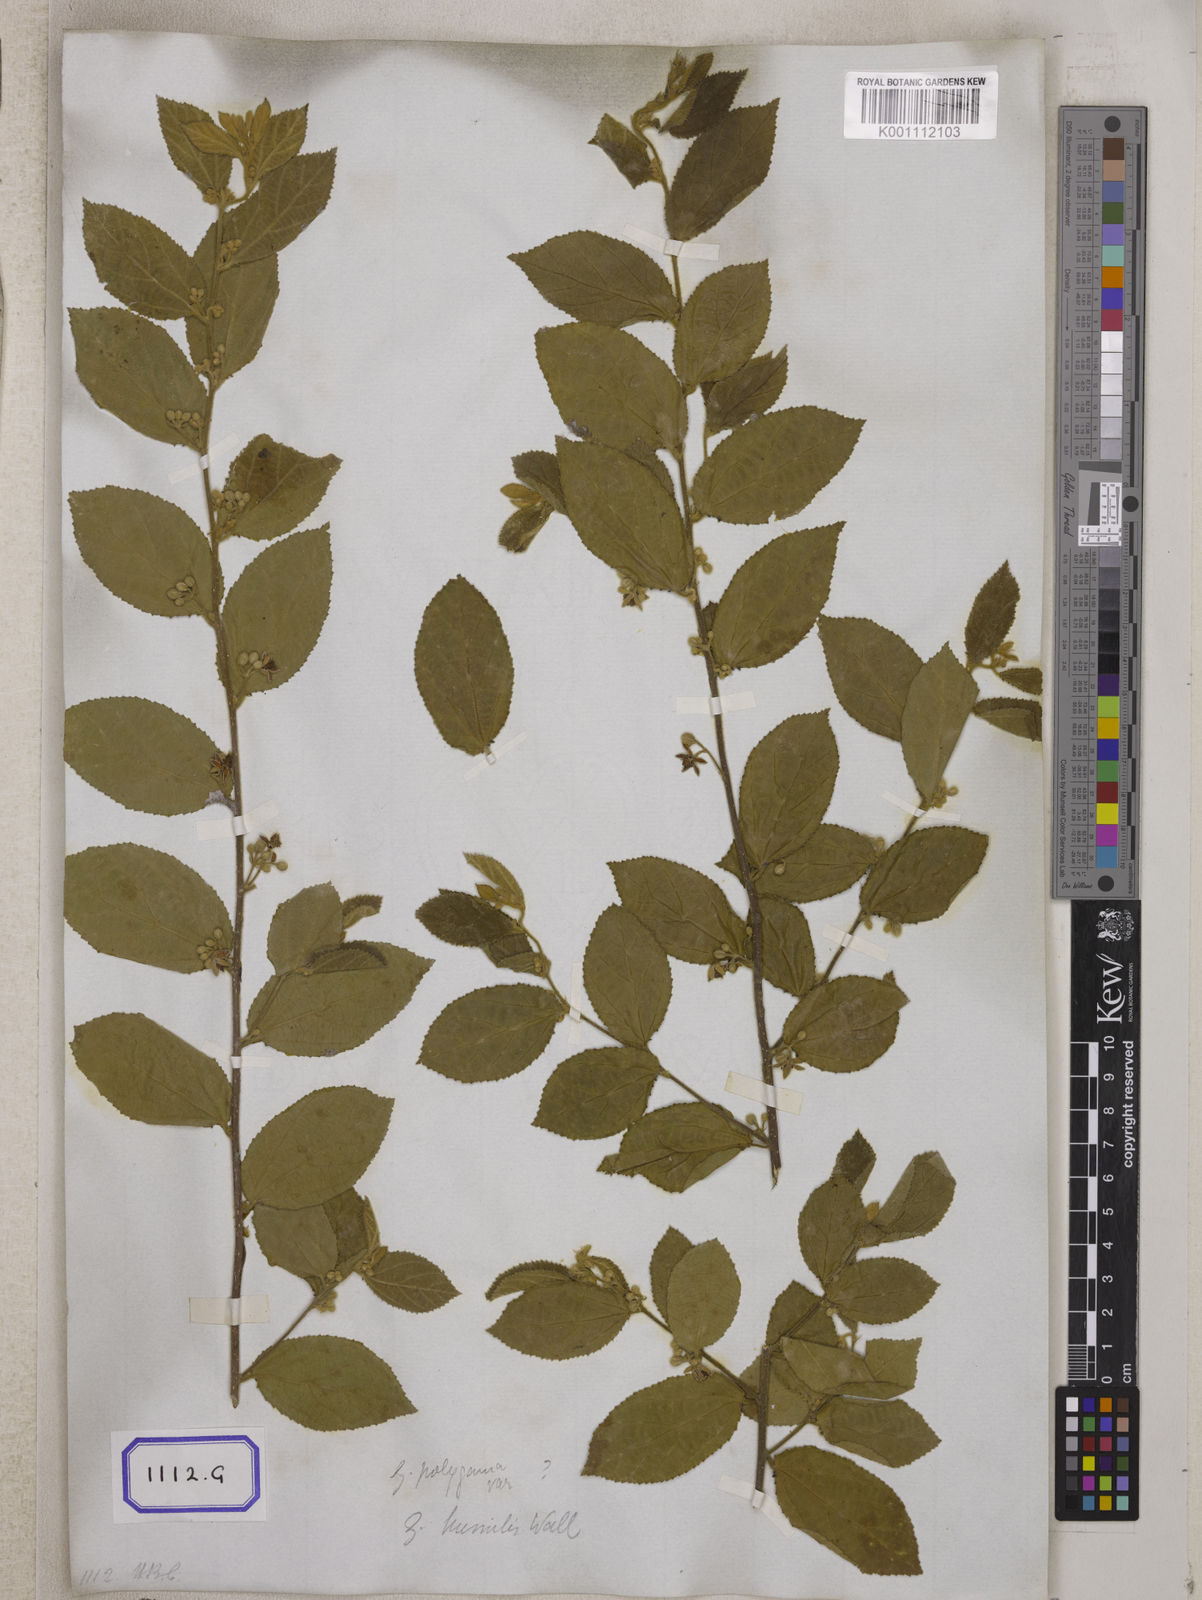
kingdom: Plantae
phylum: Tracheophyta
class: Magnoliopsida
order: Malvales
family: Malvaceae
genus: Grewia
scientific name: Grewia hirsuta
